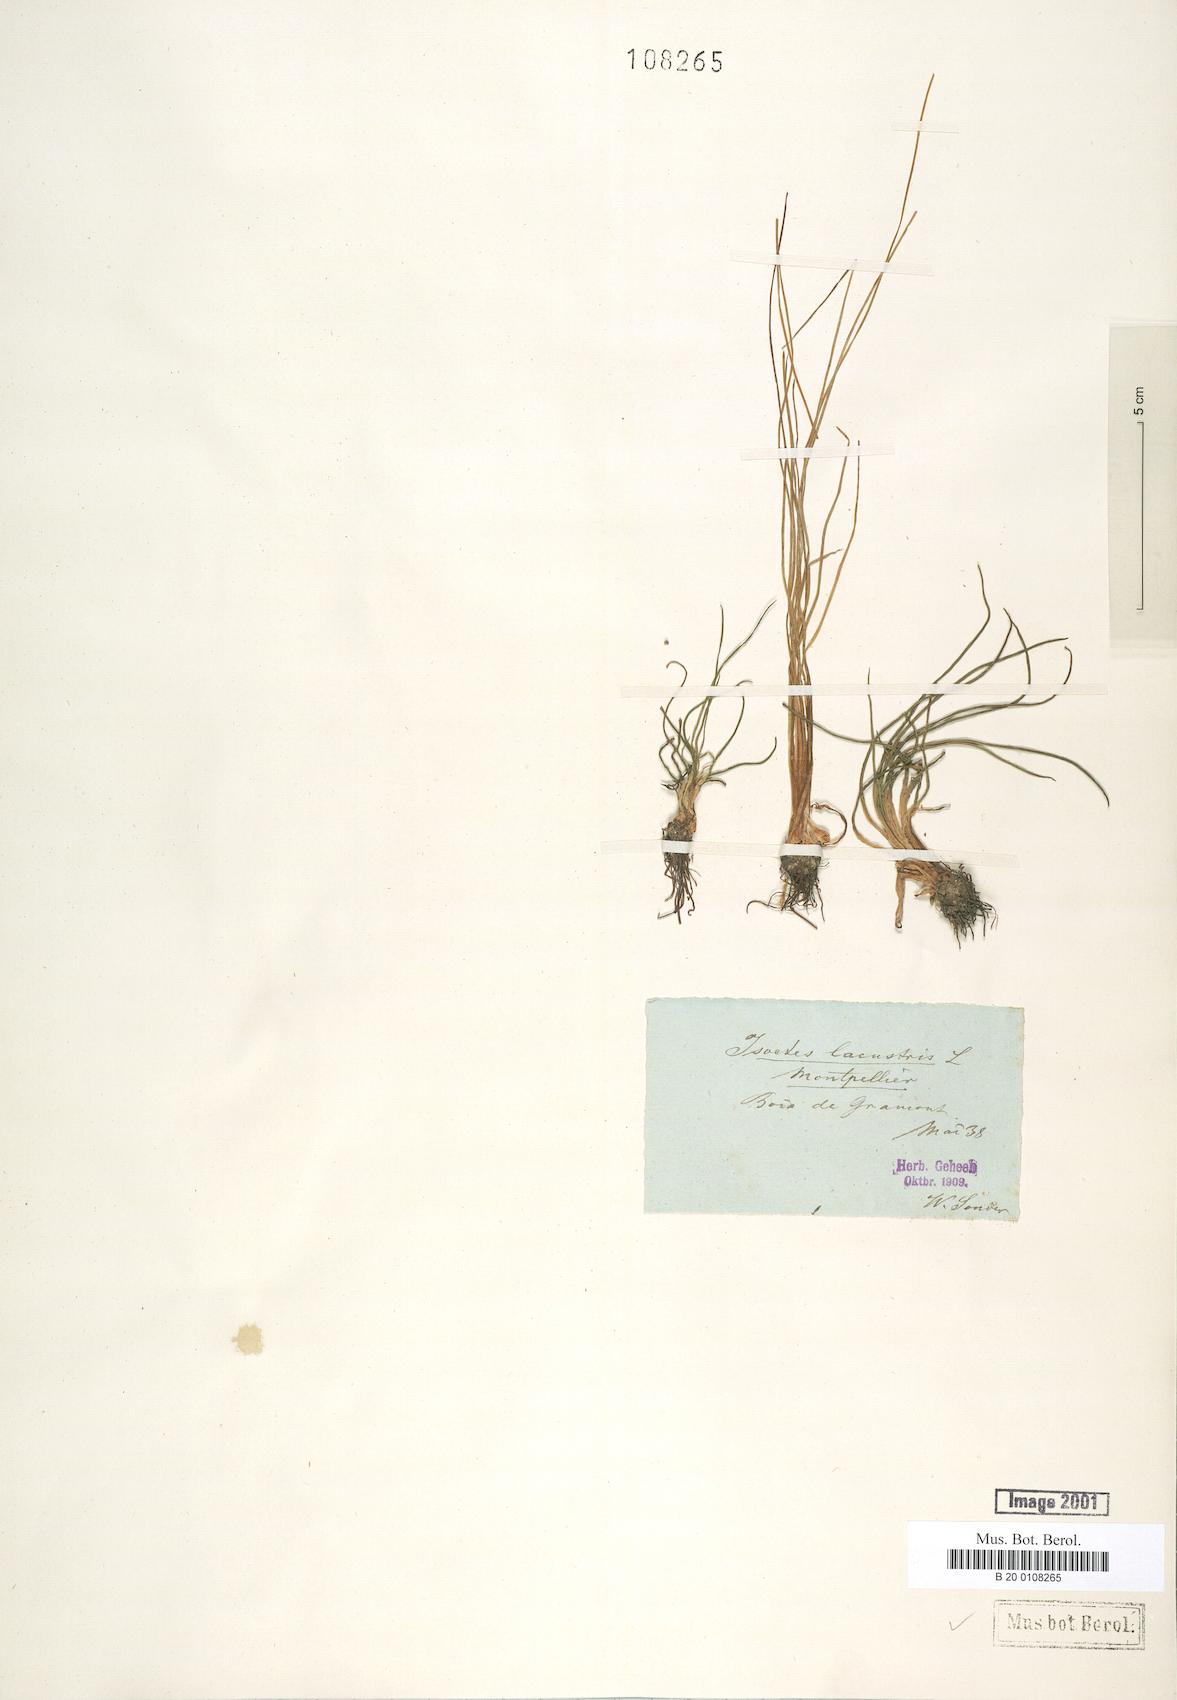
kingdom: Plantae
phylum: Tracheophyta
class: Lycopodiopsida
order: Isoetales
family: Isoetaceae
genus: Isoetes
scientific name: Isoetes lacustris
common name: Common quillwort
